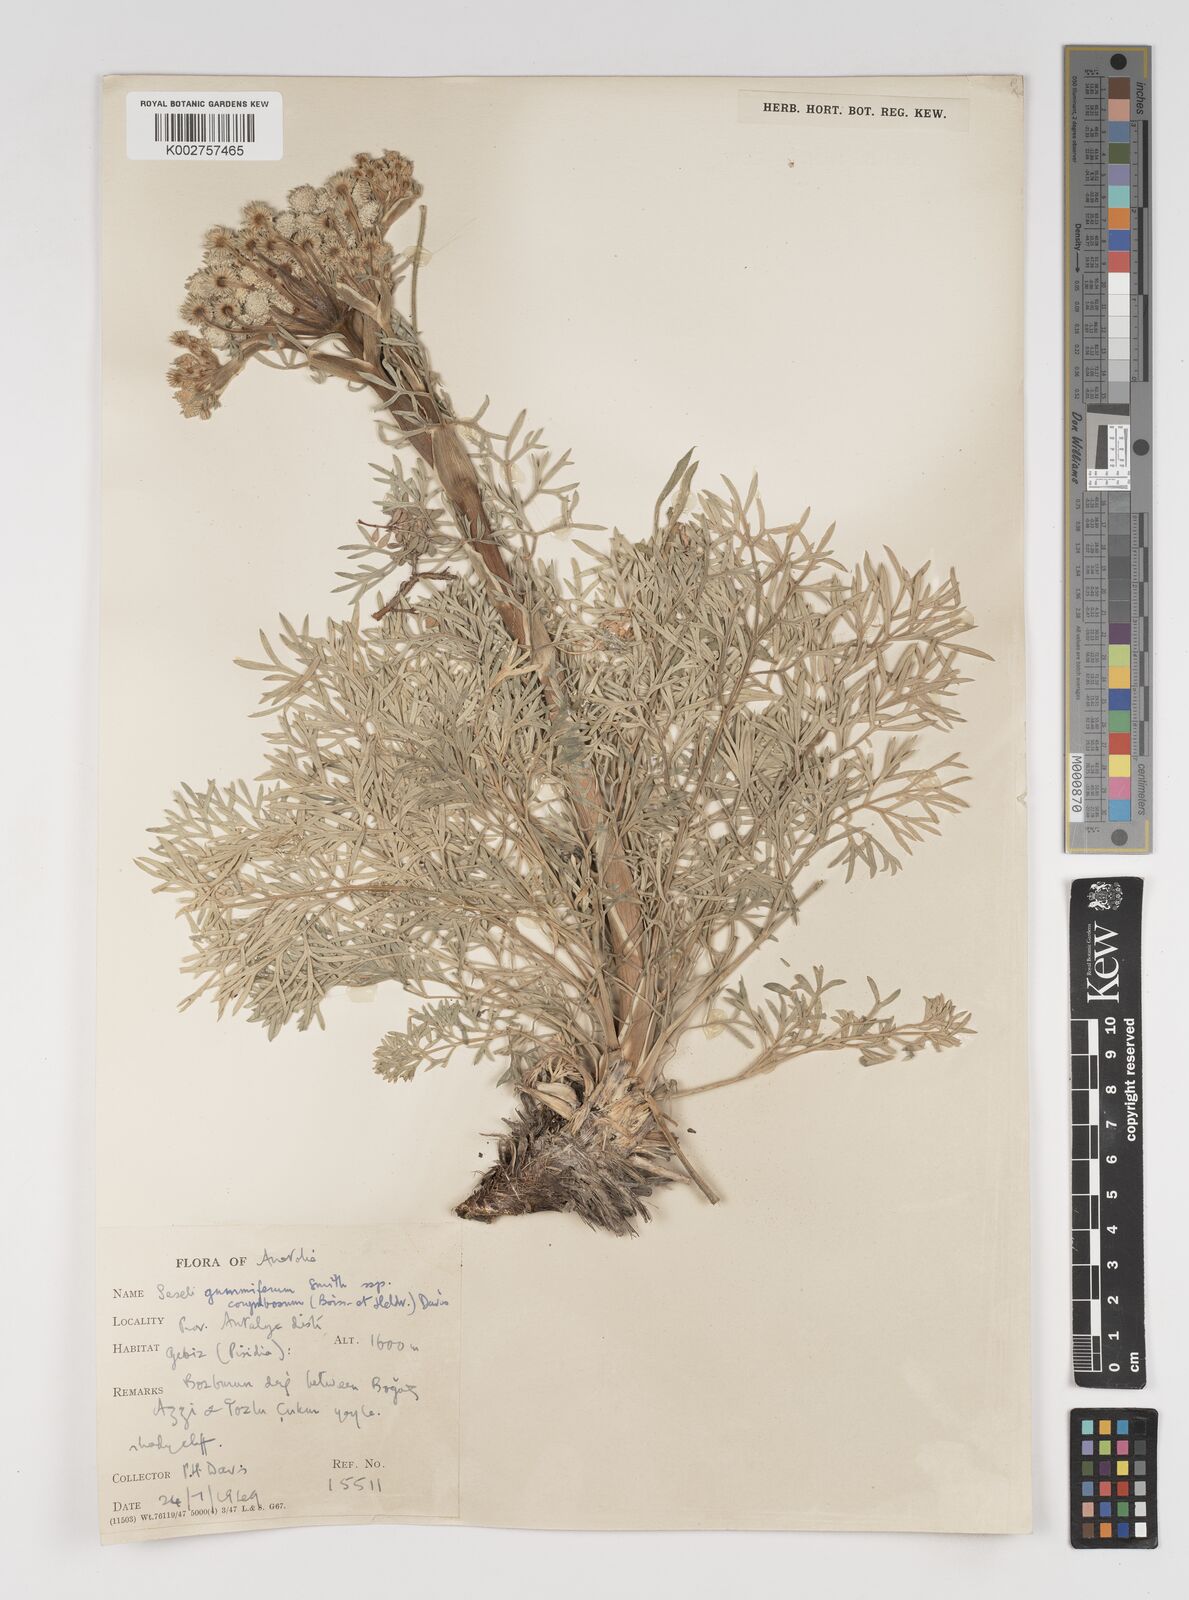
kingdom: Plantae
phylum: Tracheophyta
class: Magnoliopsida
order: Apiales
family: Apiaceae
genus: Seseli
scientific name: Seseli gummiferum
